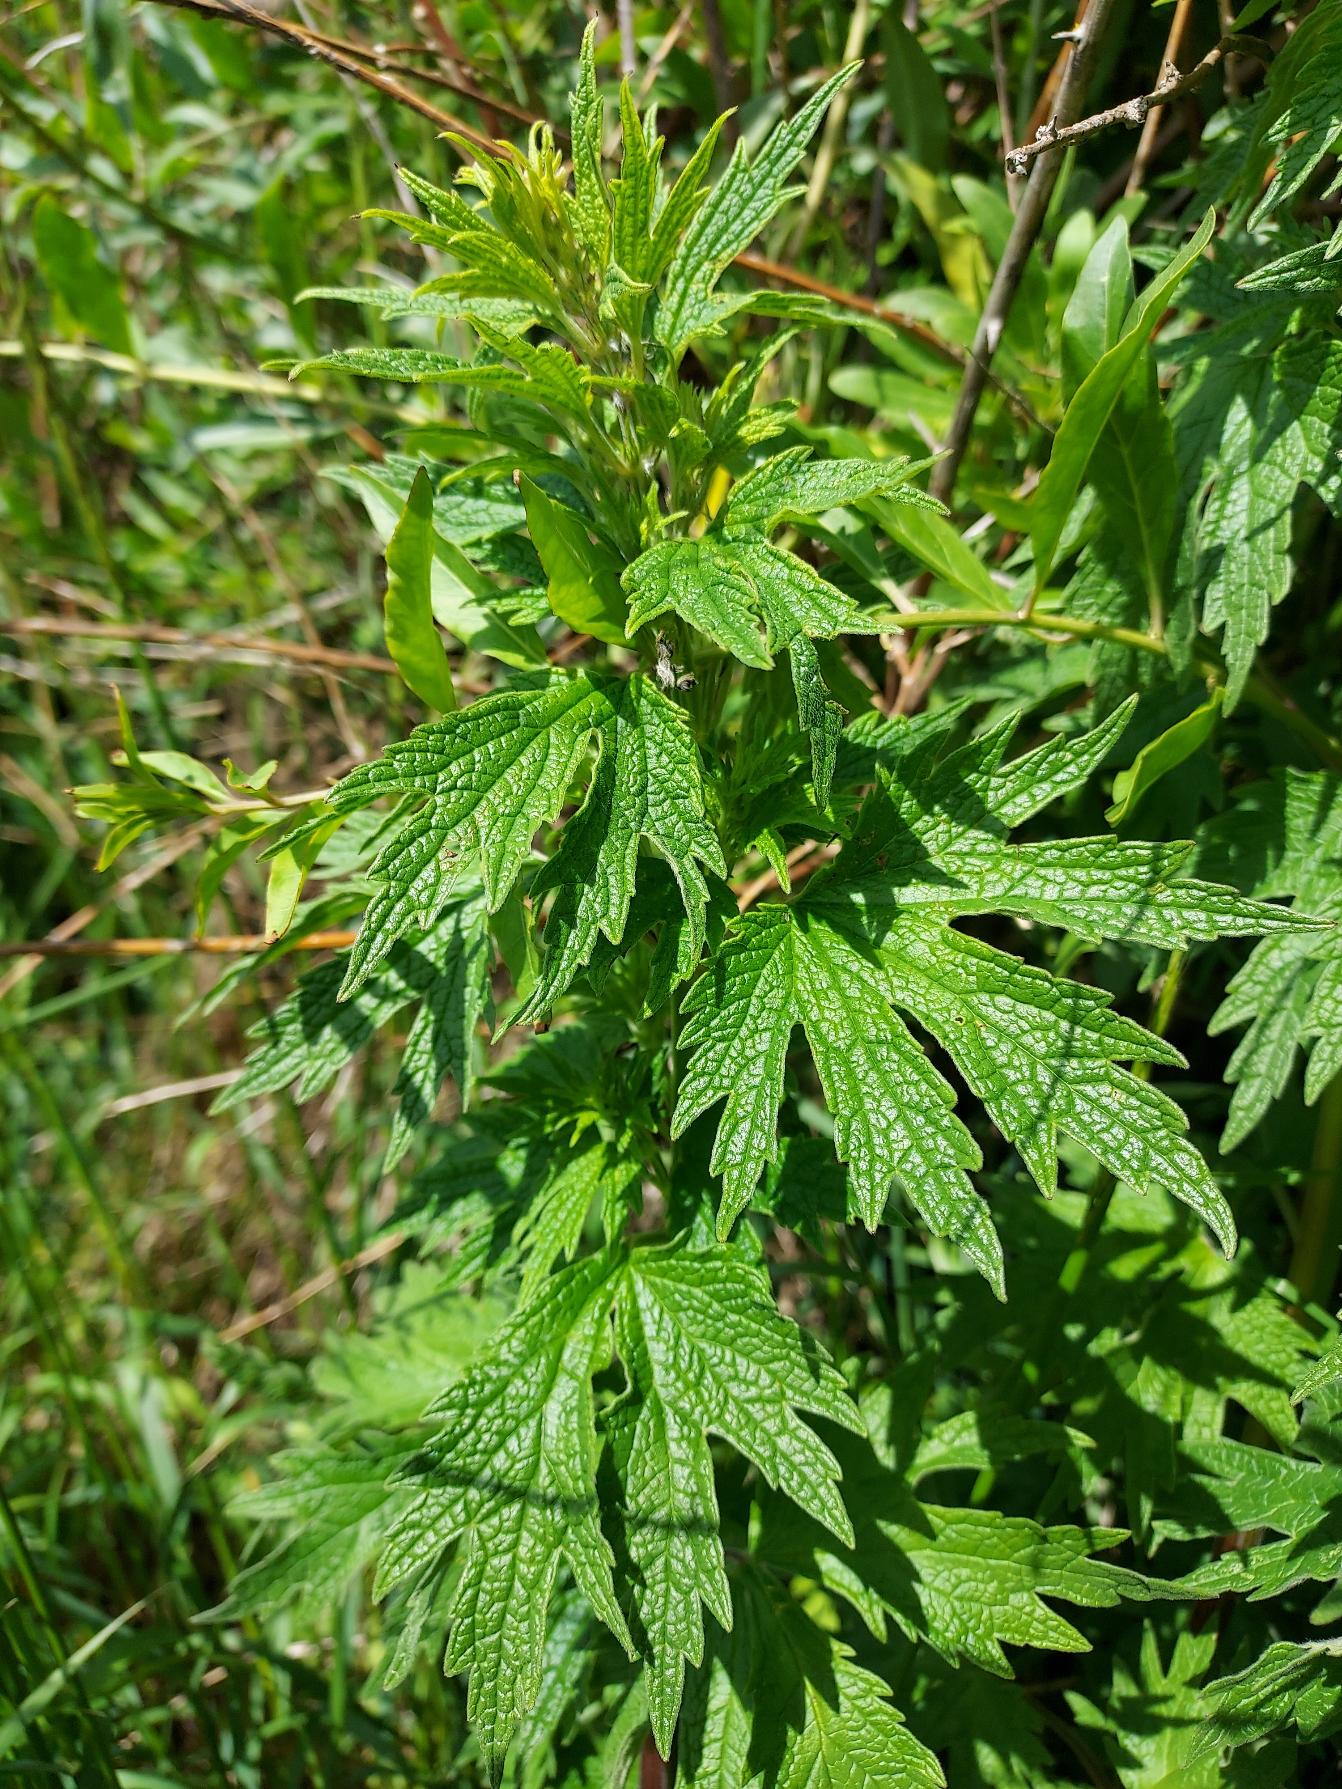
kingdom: Plantae
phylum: Tracheophyta
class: Magnoliopsida
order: Lamiales
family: Lamiaceae
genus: Leonurus
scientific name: Leonurus cardiaca
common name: Hjertespand
